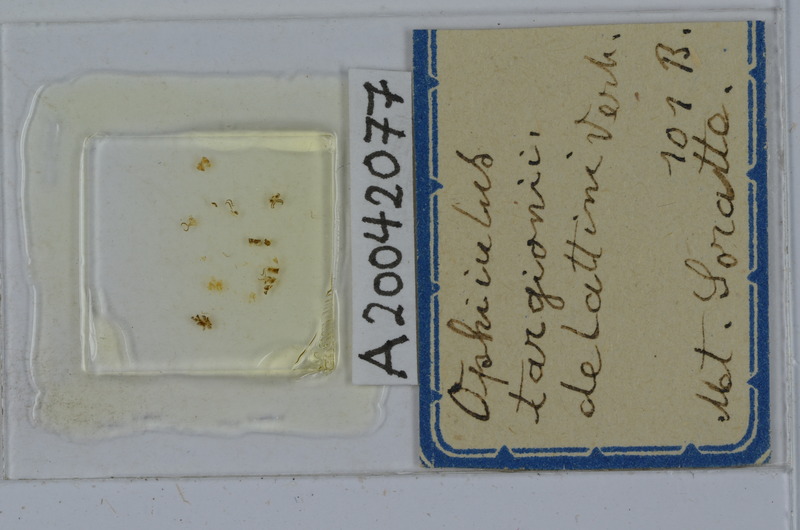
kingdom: Animalia
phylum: Arthropoda
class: Diplopoda
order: Julida
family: Julidae
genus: Ophyiulus
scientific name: Ophyiulus targionii
